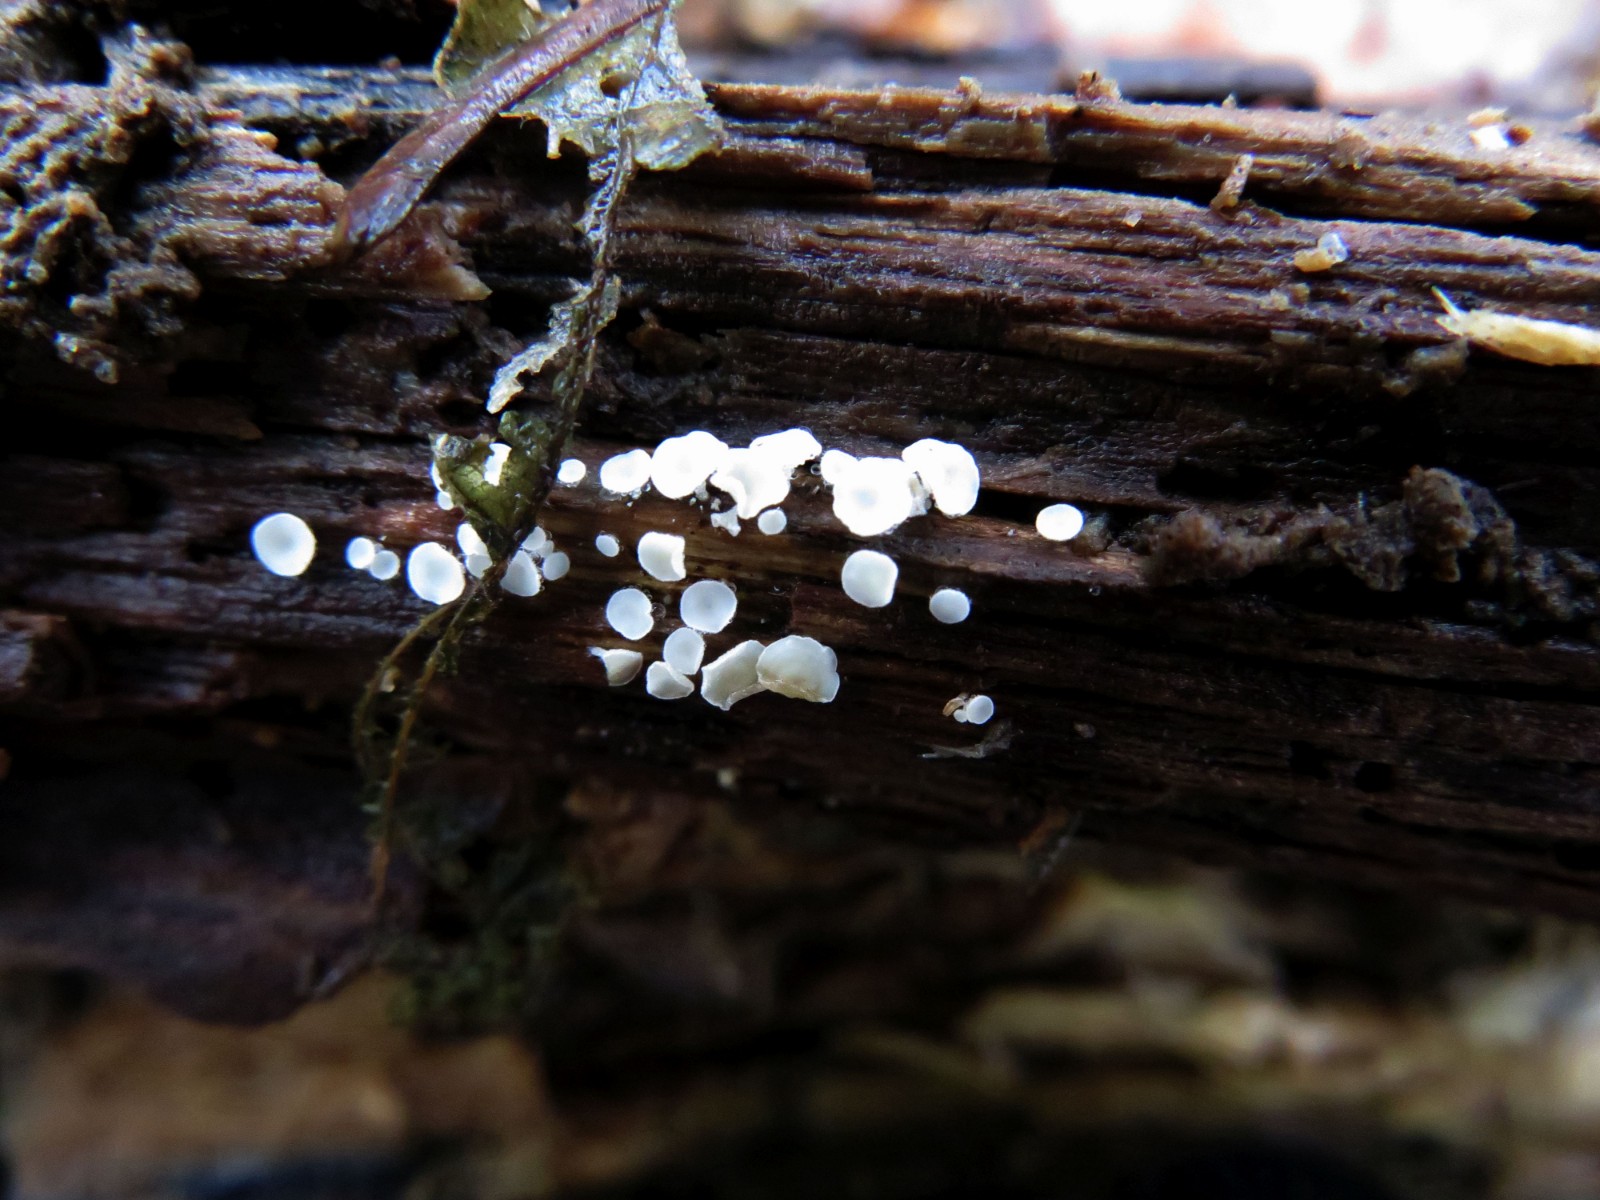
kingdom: Fungi
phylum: Ascomycota
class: Leotiomycetes
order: Helotiales
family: Lachnaceae
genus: Lachnum
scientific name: Lachnum impudicum
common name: vinter-frynseskive
